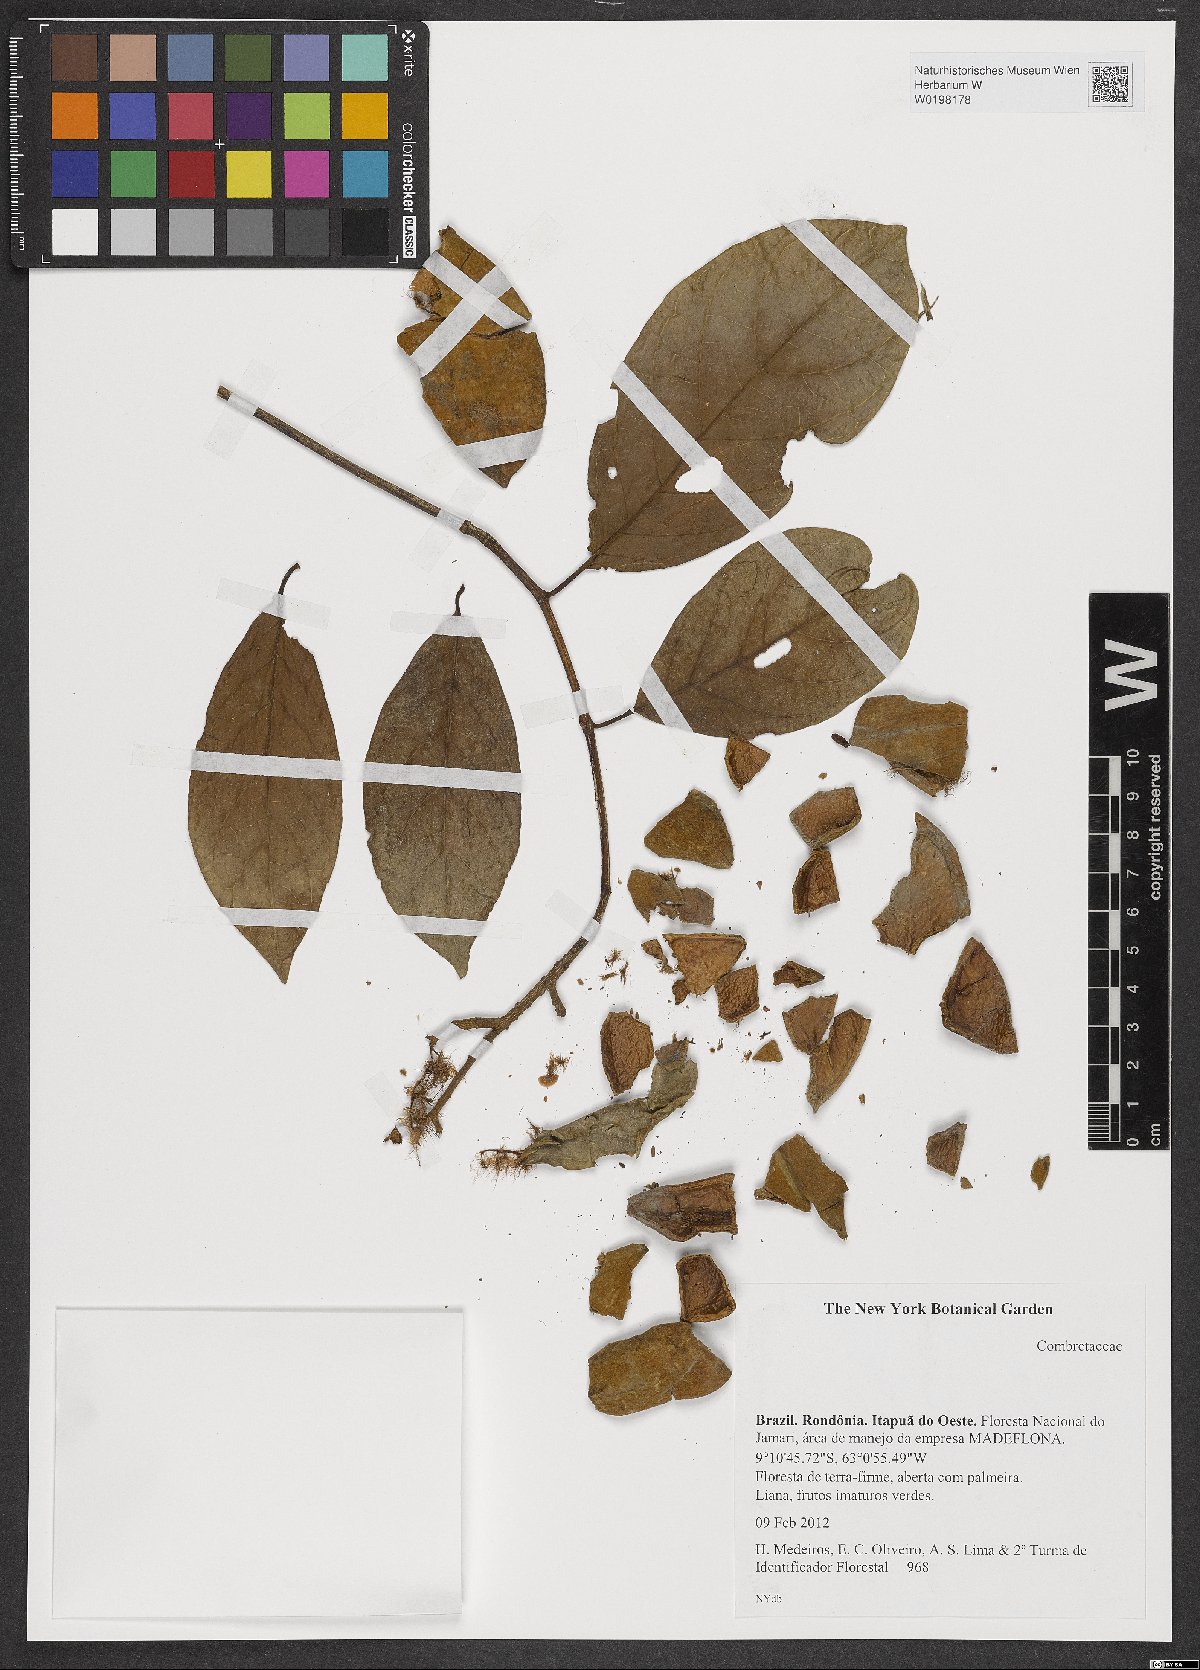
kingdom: Plantae
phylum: Tracheophyta
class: Magnoliopsida
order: Myrtales
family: Combretaceae
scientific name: Combretaceae
